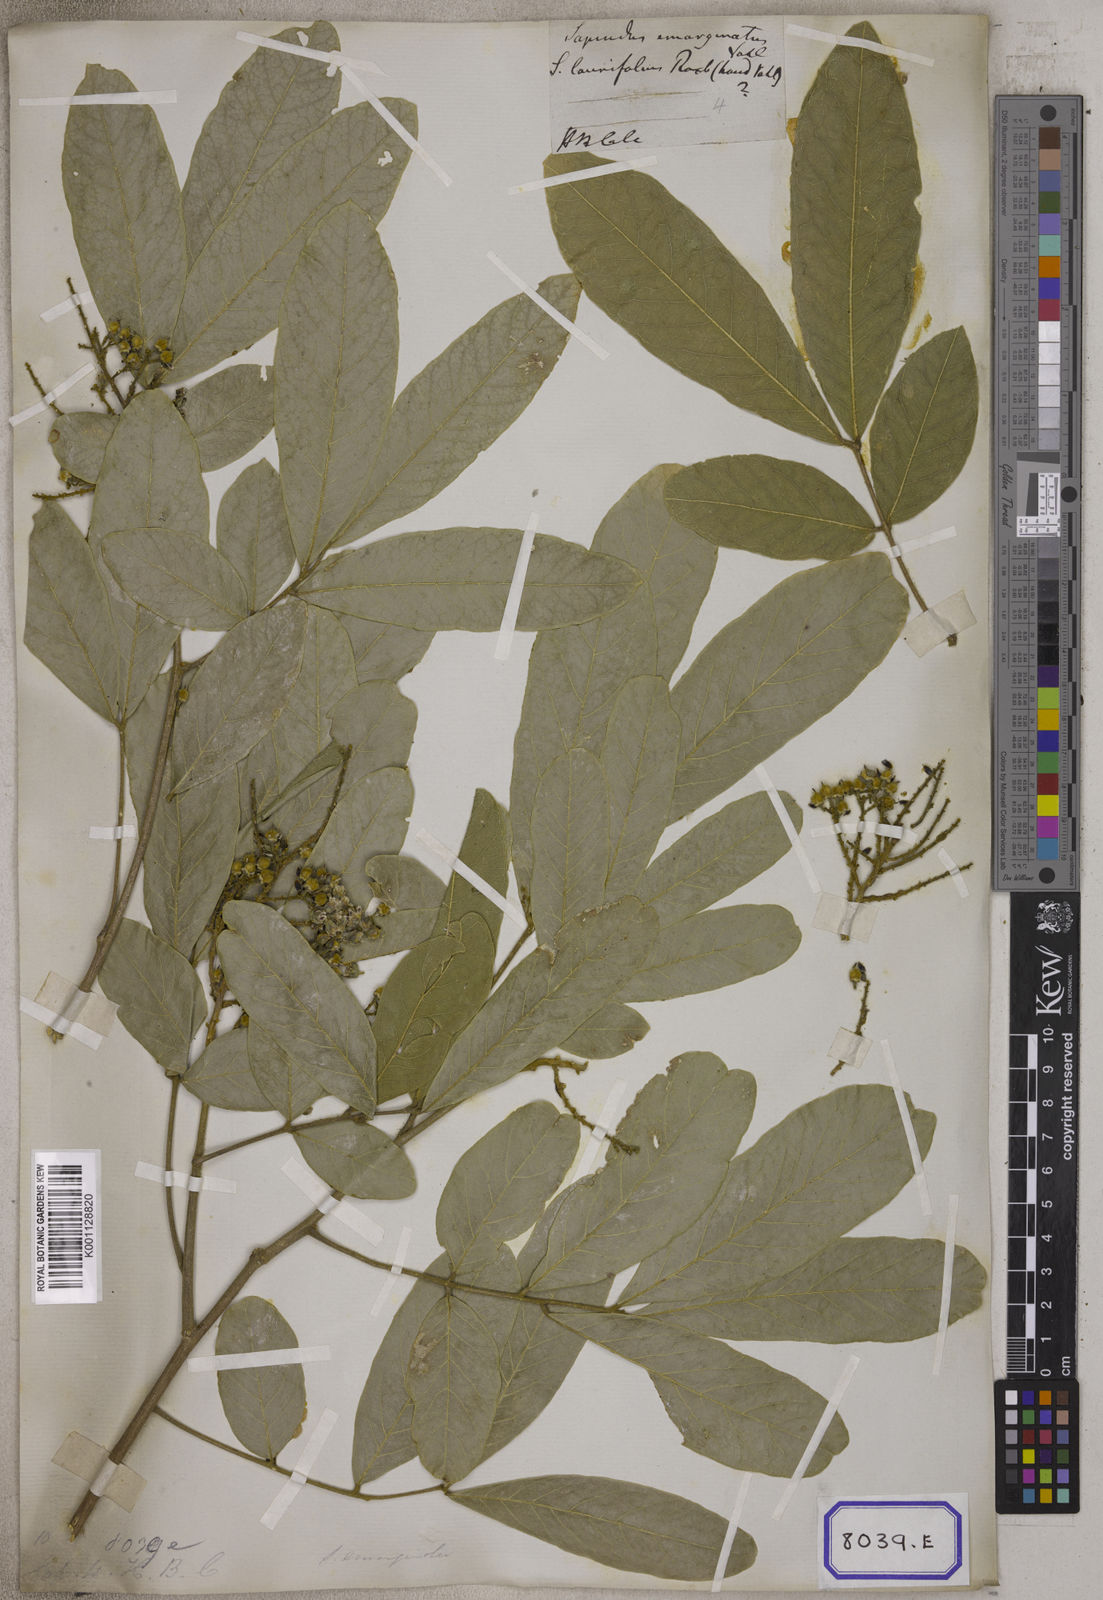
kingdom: Plantae
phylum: Tracheophyta
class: Magnoliopsida
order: Sapindales
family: Sapindaceae
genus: Sapindus
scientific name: Sapindus emarginatus
